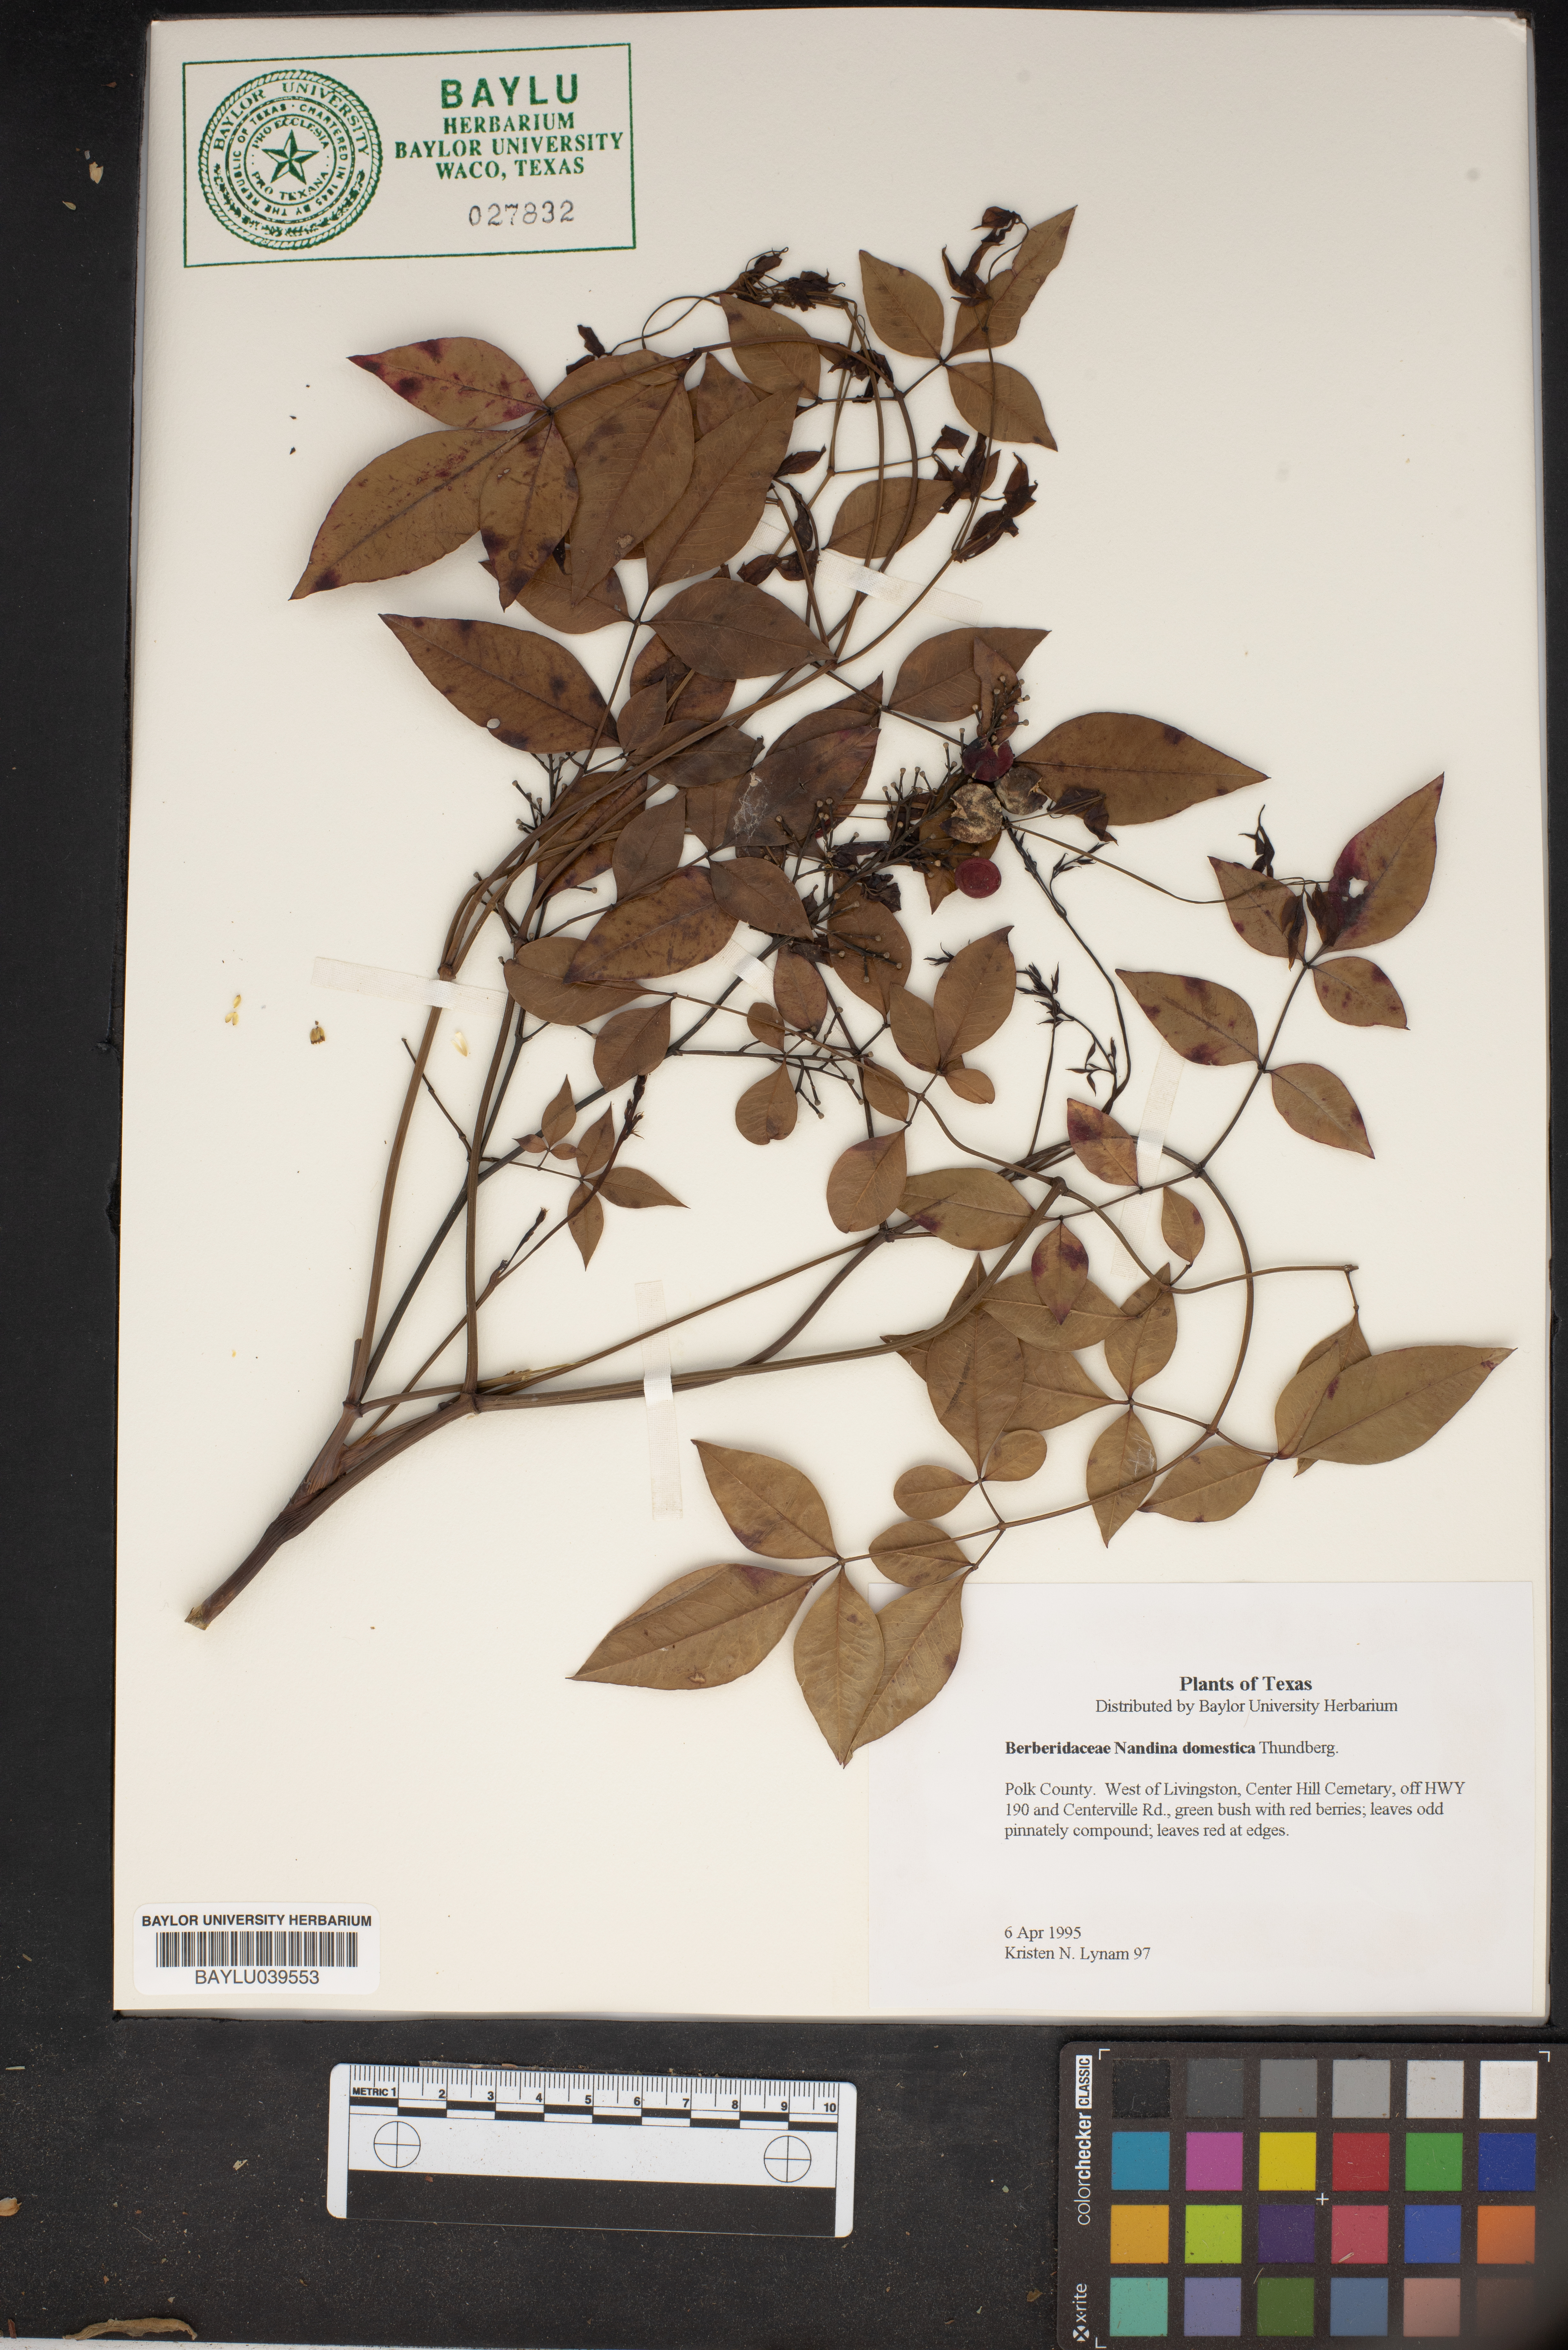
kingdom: Plantae
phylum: Tracheophyta
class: Magnoliopsida
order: Ranunculales
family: Berberidaceae
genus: Nandina
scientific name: Nandina domestica
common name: Sacred bamboo
